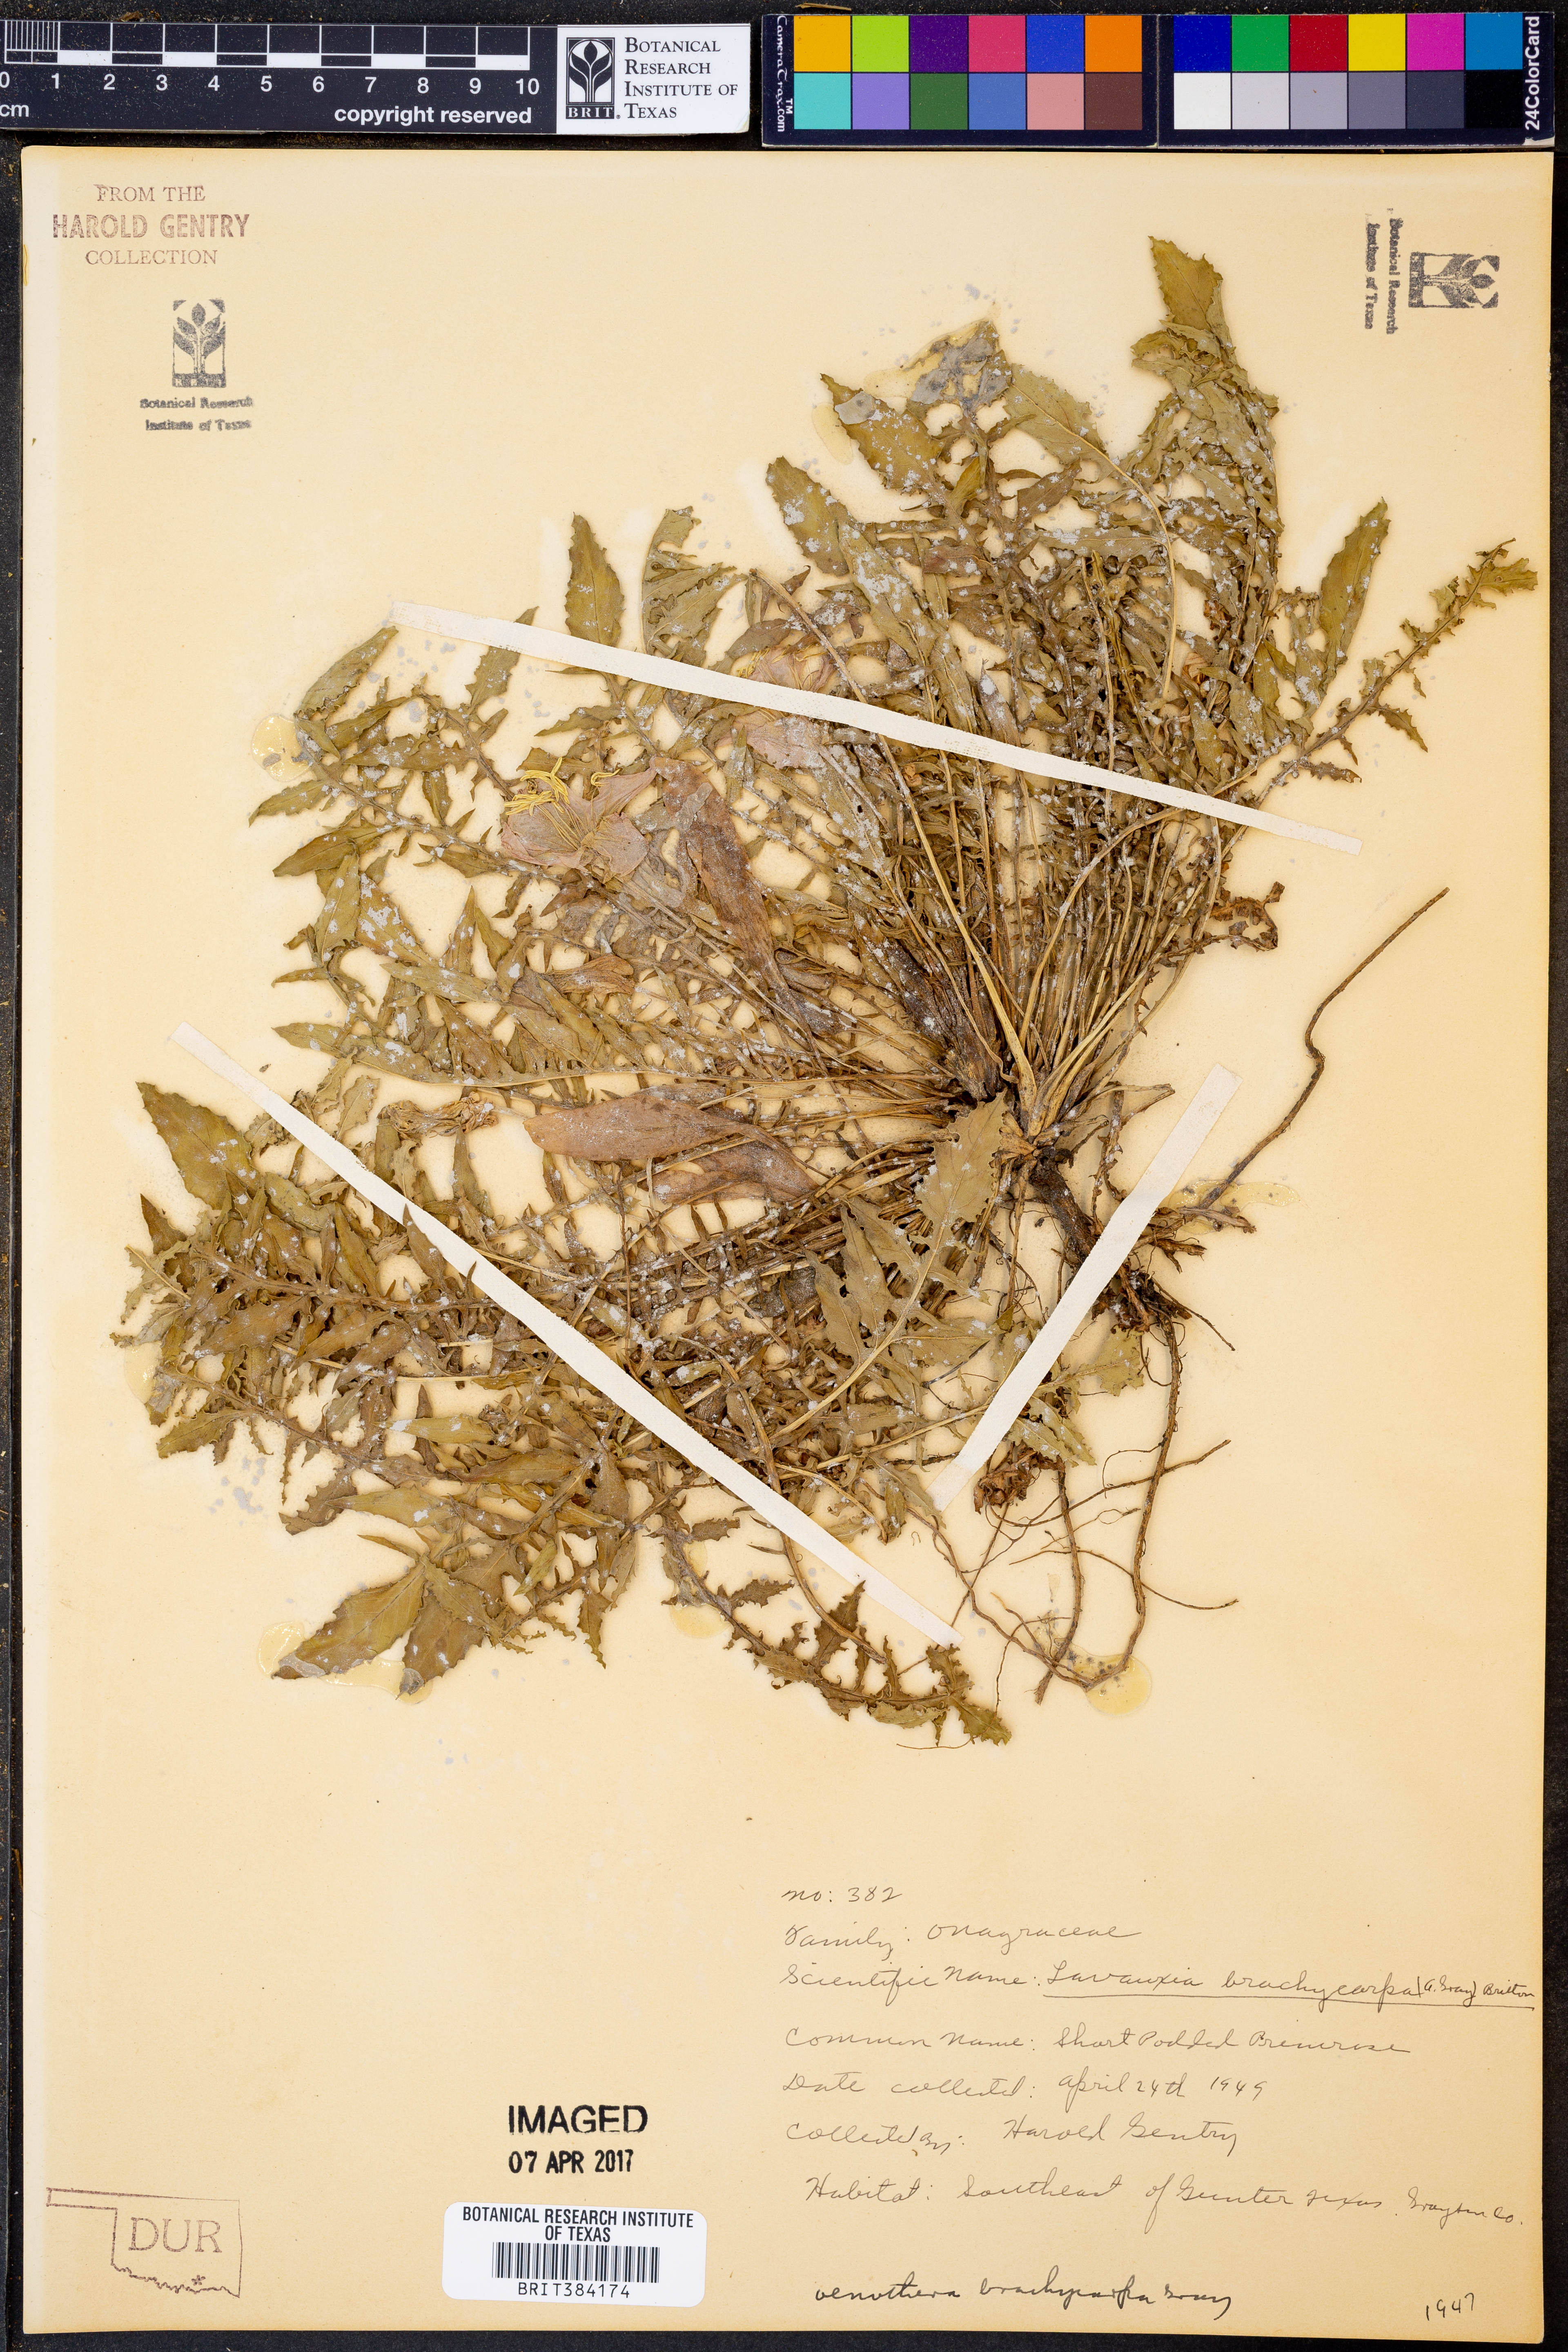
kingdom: Plantae
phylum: Tracheophyta
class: Magnoliopsida
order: Myrtales
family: Onagraceae
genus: Oenothera
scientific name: Oenothera brachycarpa
